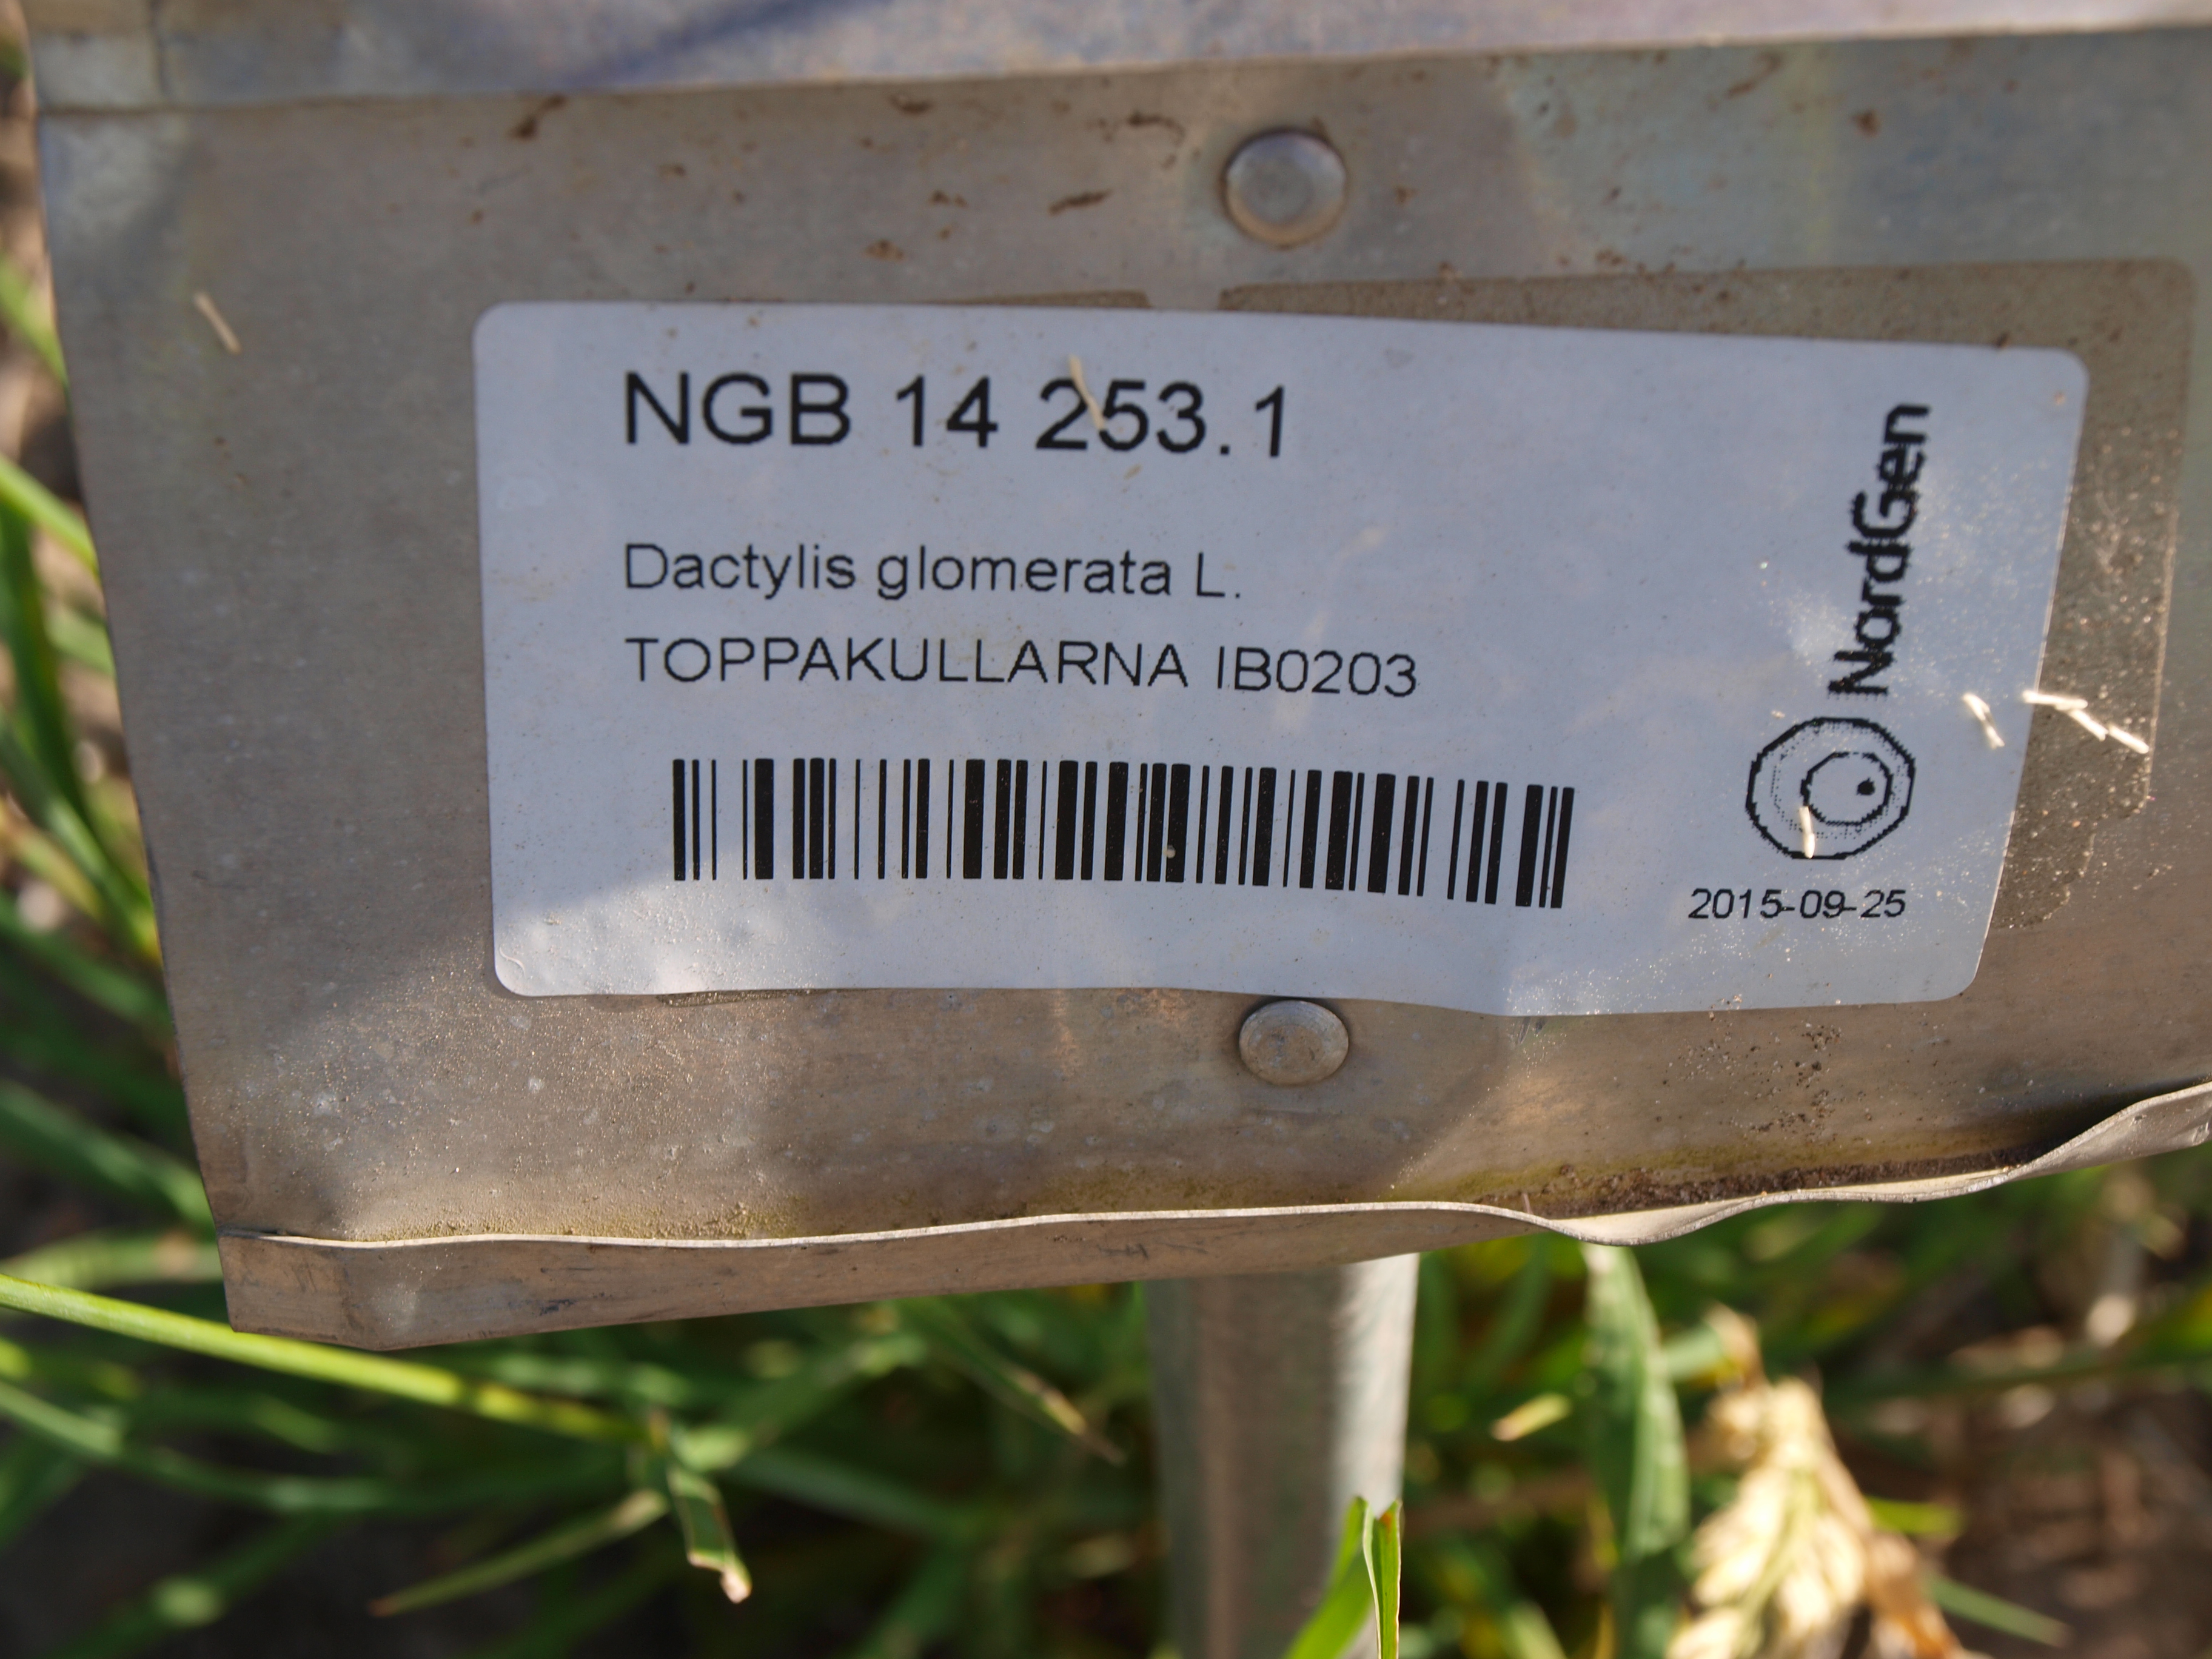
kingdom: Plantae
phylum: Tracheophyta
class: Liliopsida
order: Poales
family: Poaceae
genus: Dactylis
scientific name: Dactylis glomerata
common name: Orchardgrass
